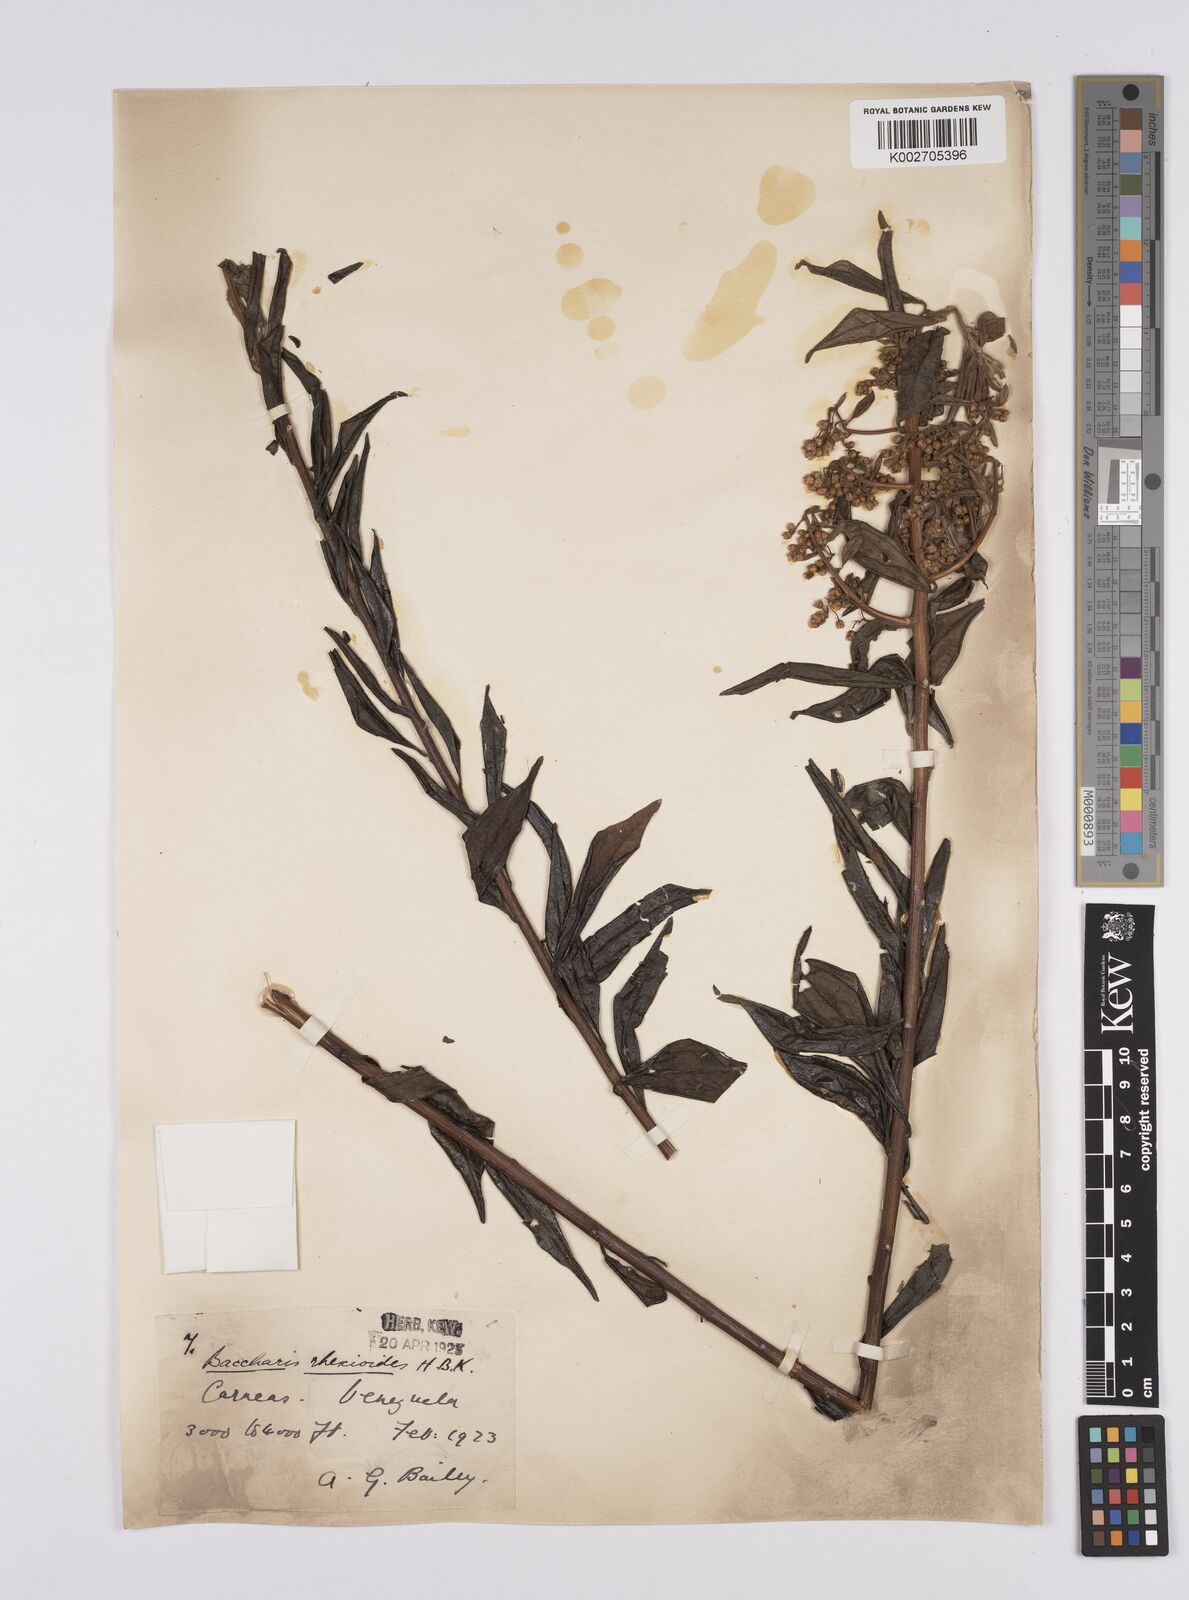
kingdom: Plantae
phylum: Tracheophyta
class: Magnoliopsida
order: Asterales
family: Asteraceae
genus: Baccharis
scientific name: Baccharis trinervis
